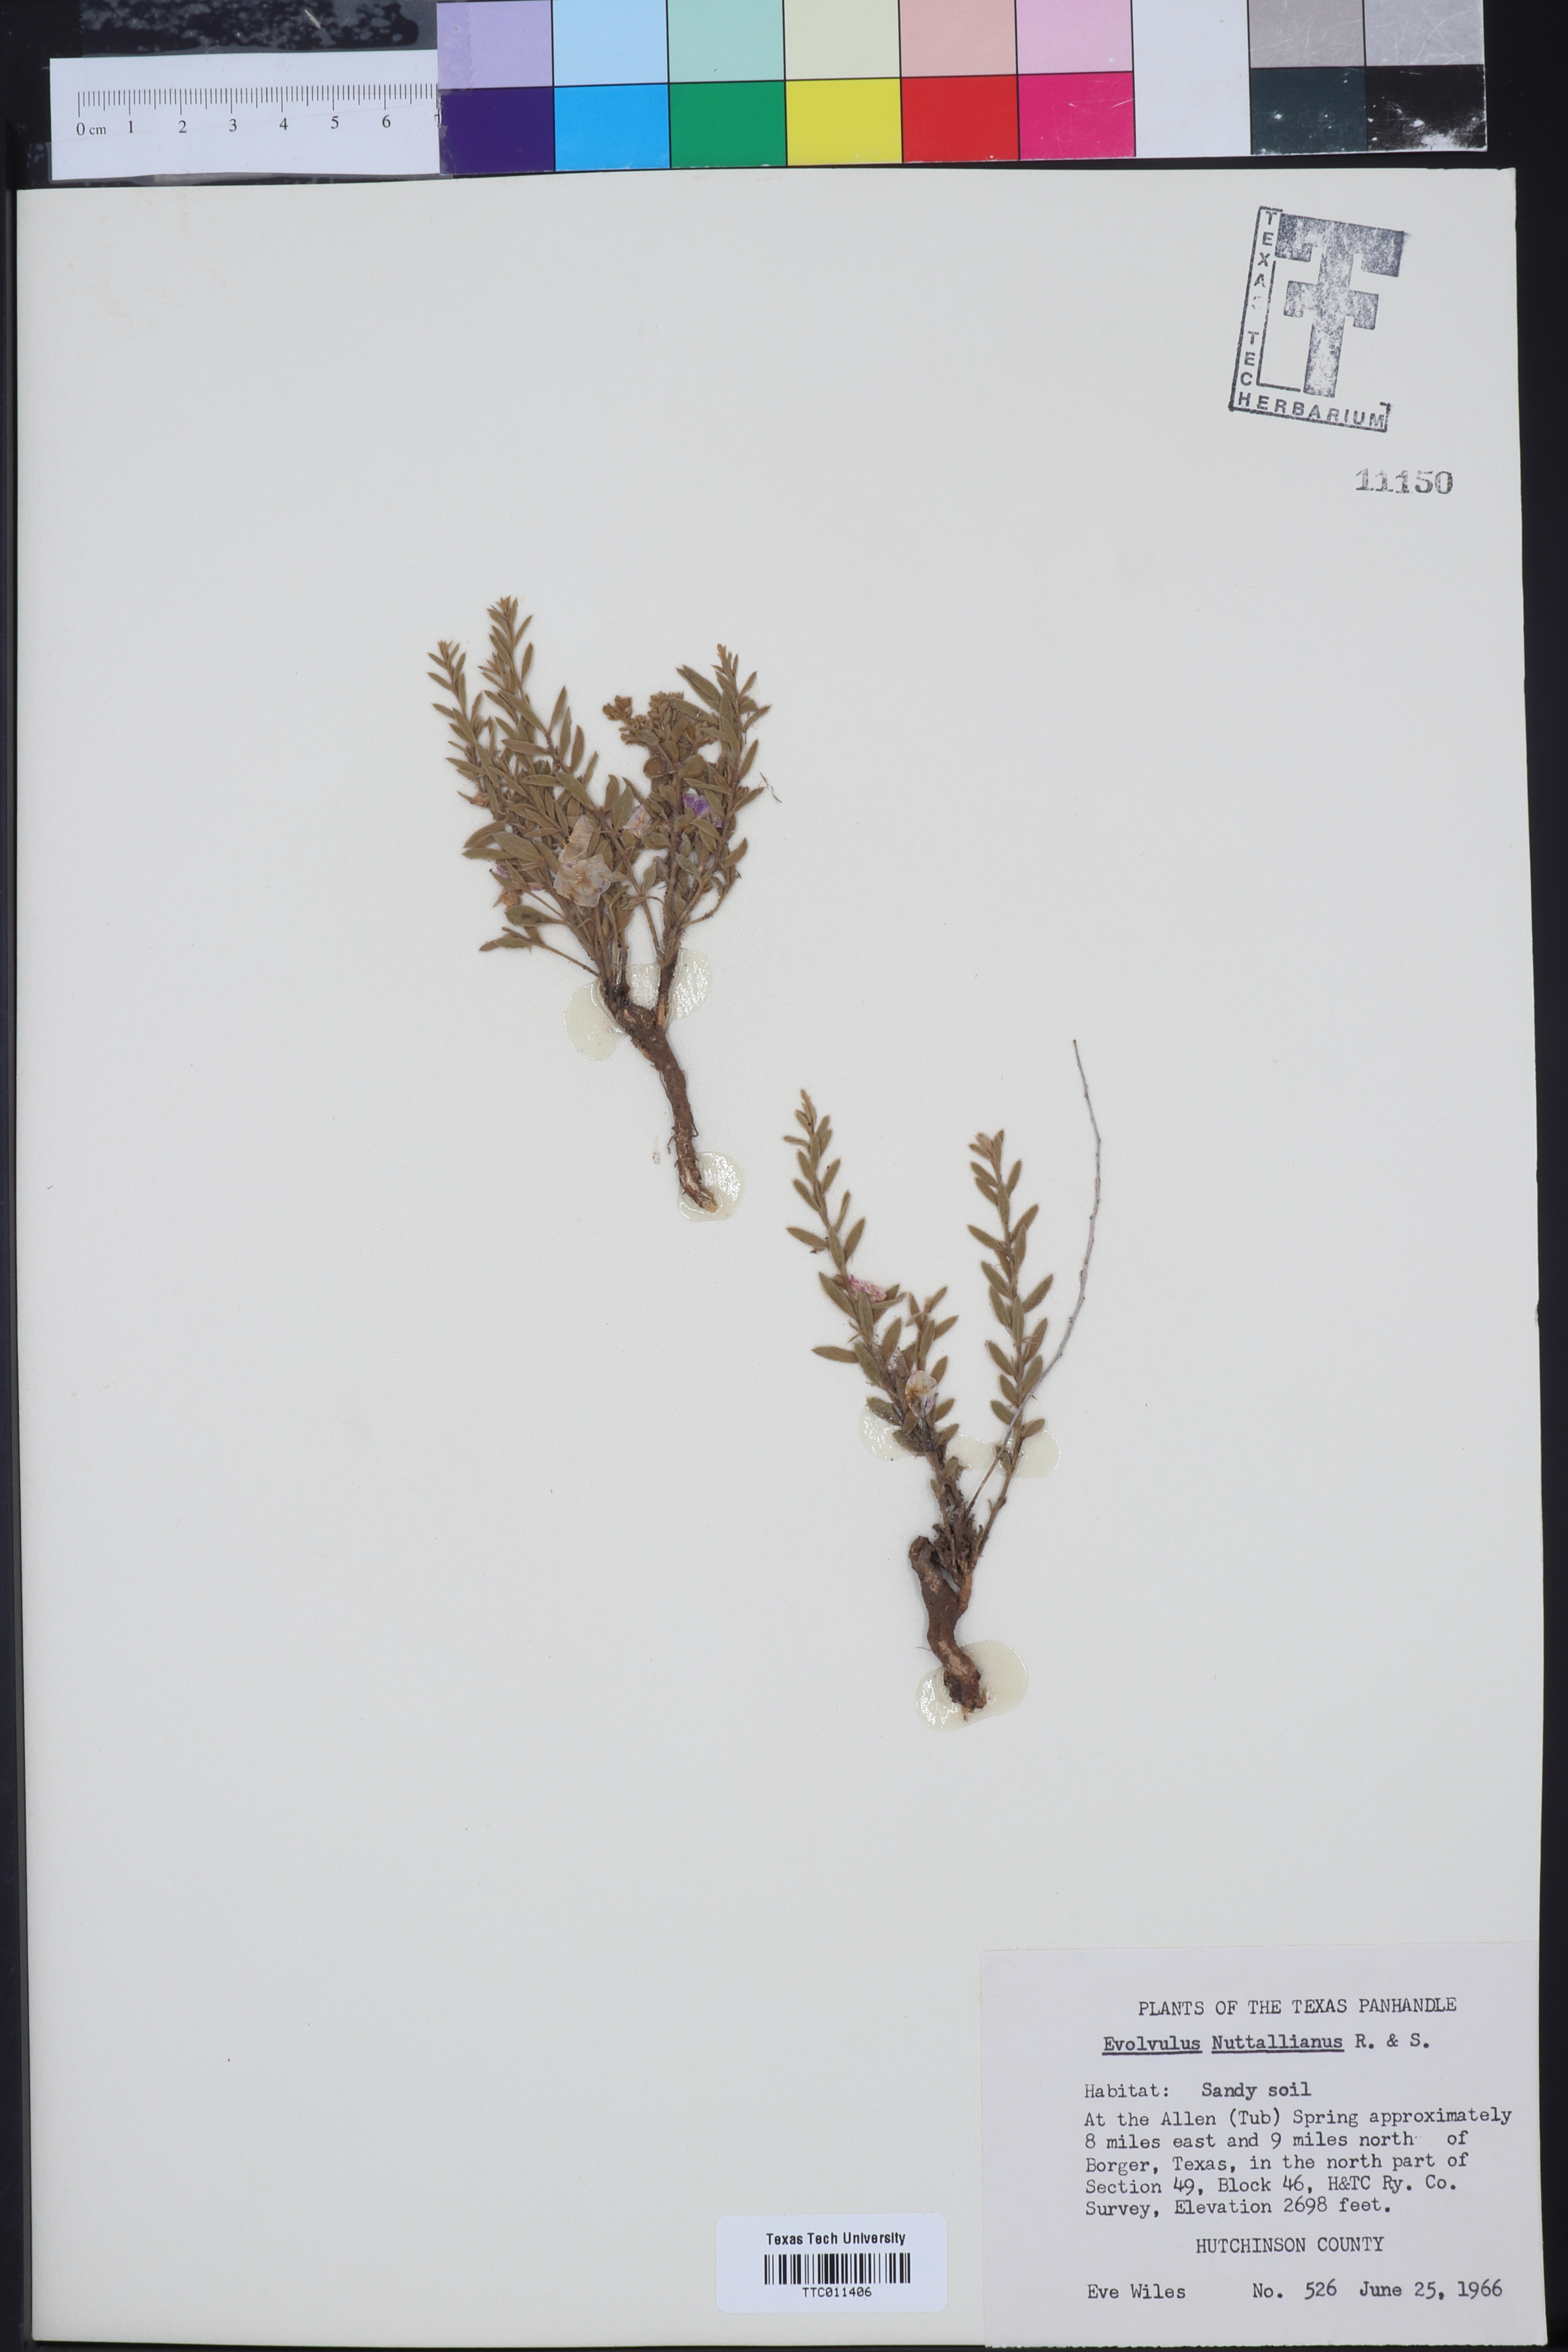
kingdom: Plantae
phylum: Tracheophyta
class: Magnoliopsida
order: Solanales
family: Convolvulaceae
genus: Evolvulus
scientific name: Evolvulus nuttallianus
